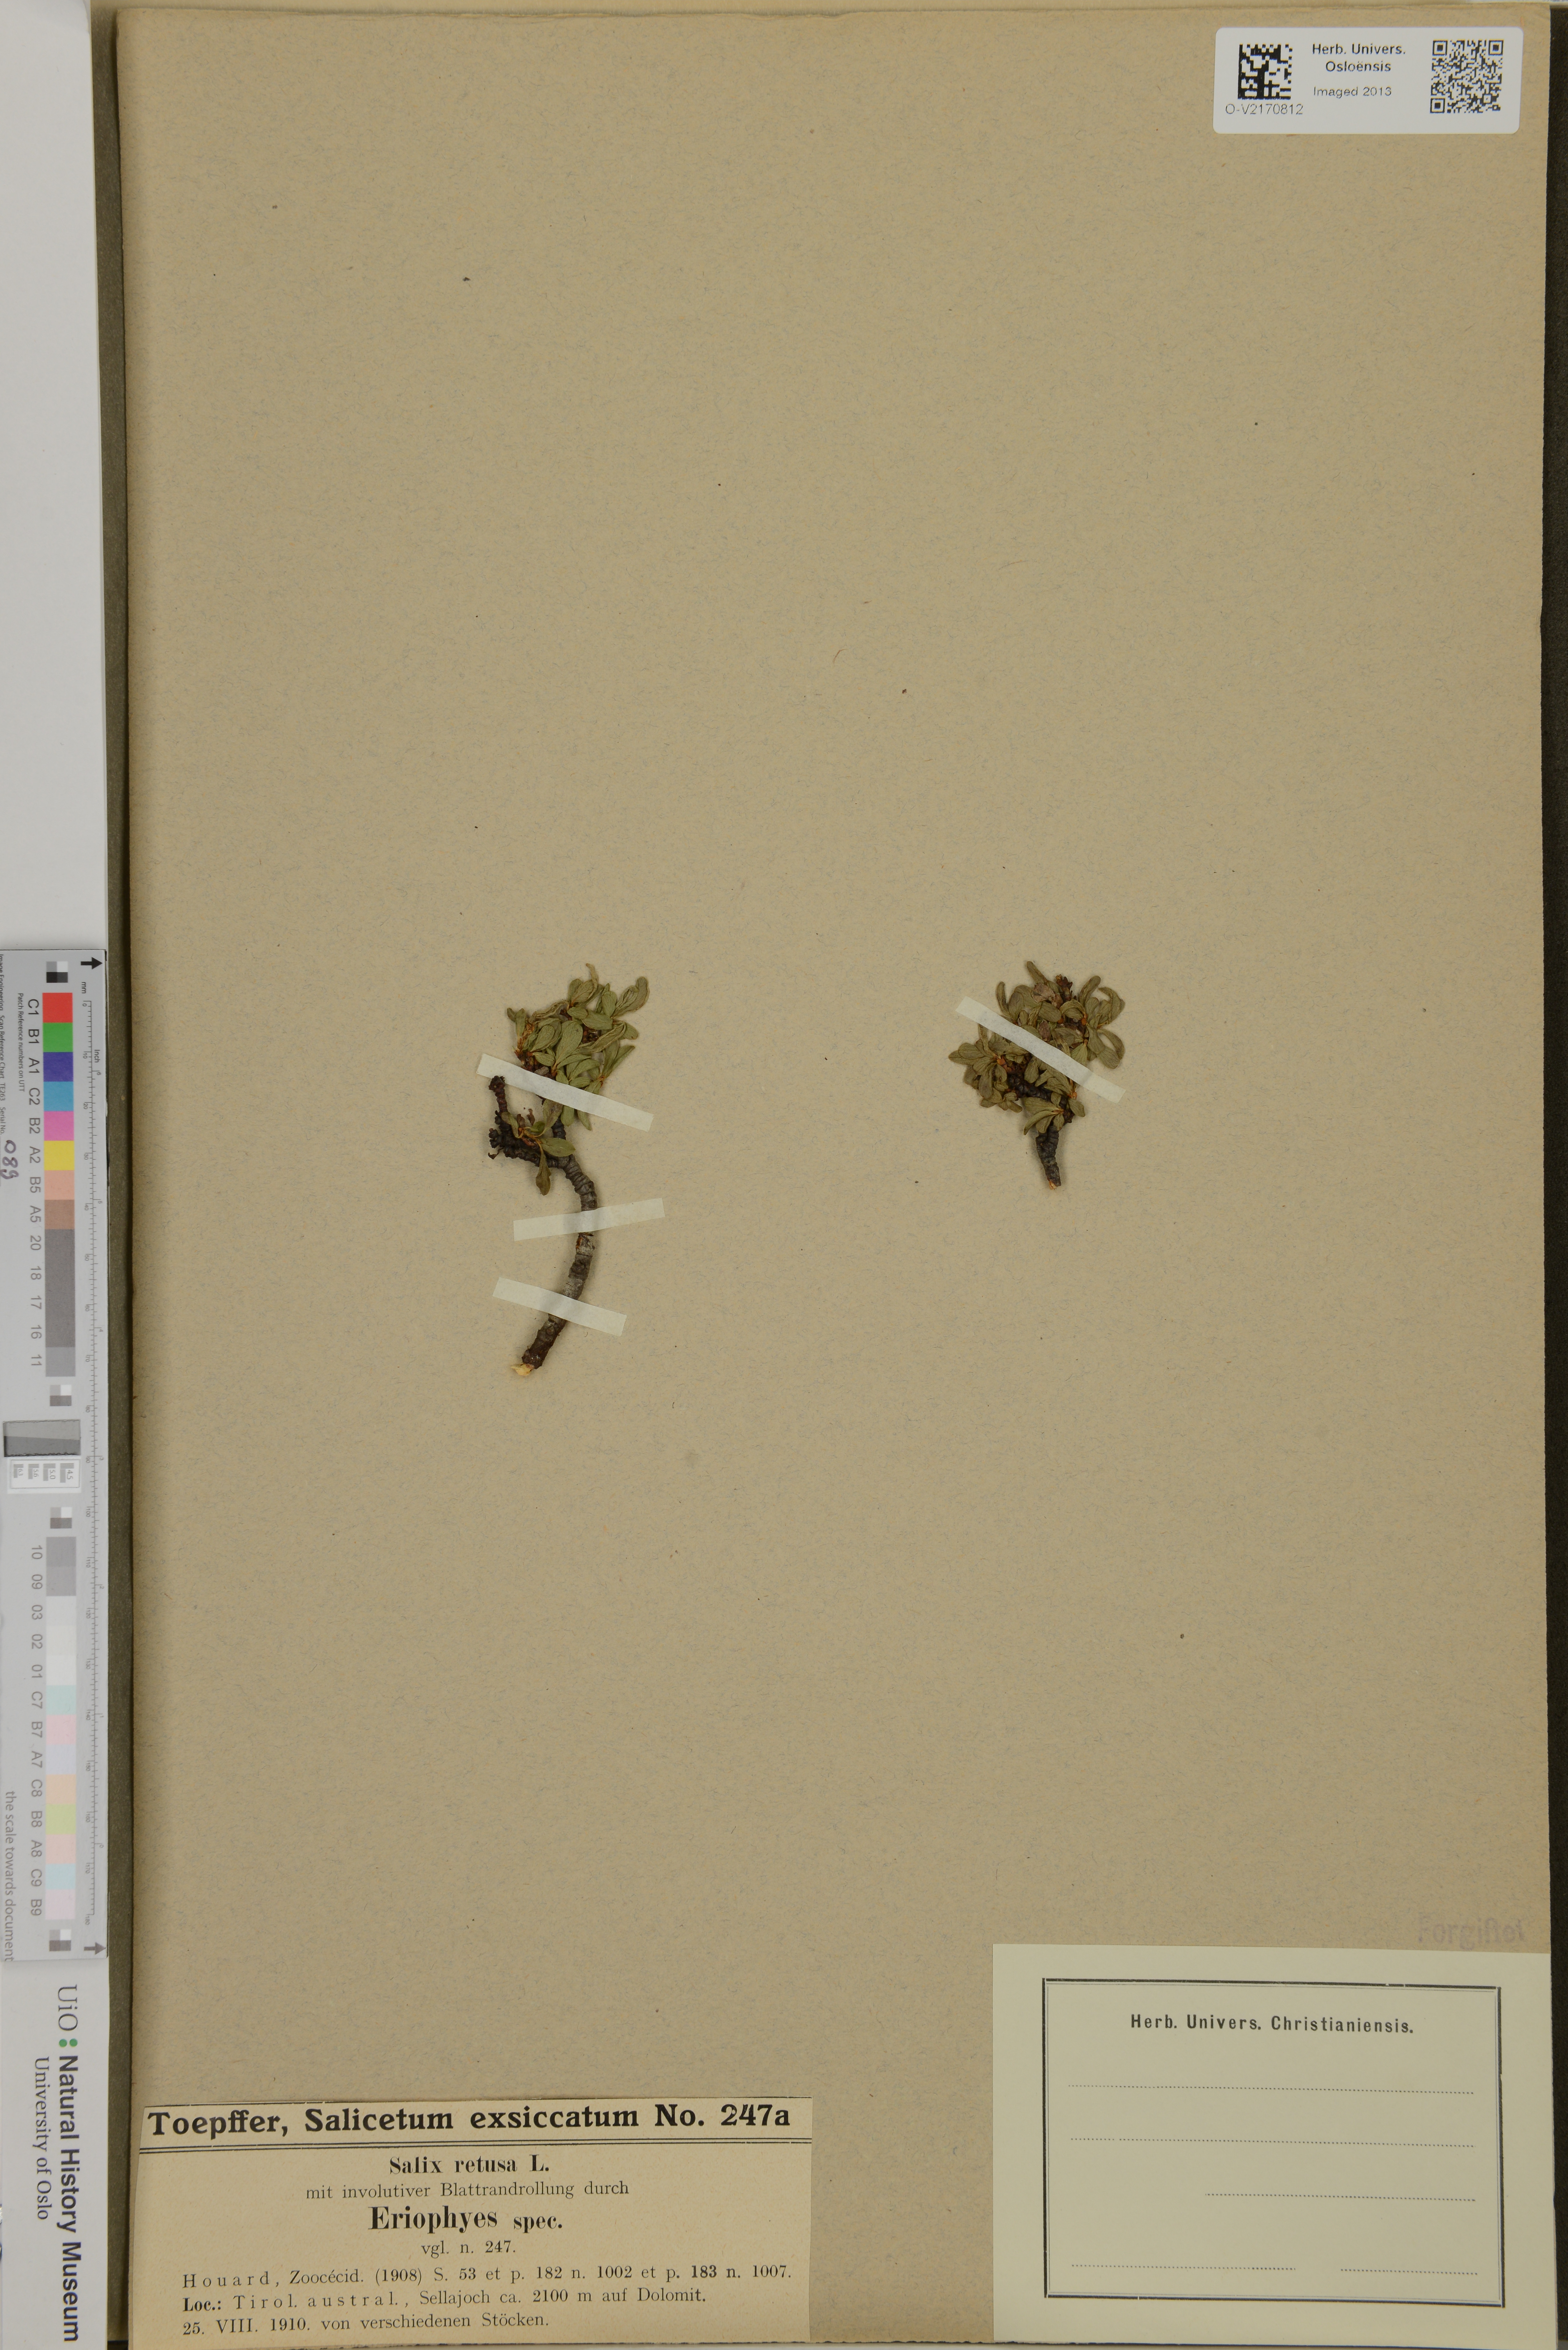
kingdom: Plantae
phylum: Tracheophyta
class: Magnoliopsida
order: Malpighiales
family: Salicaceae
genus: Salix
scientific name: Salix retusa
